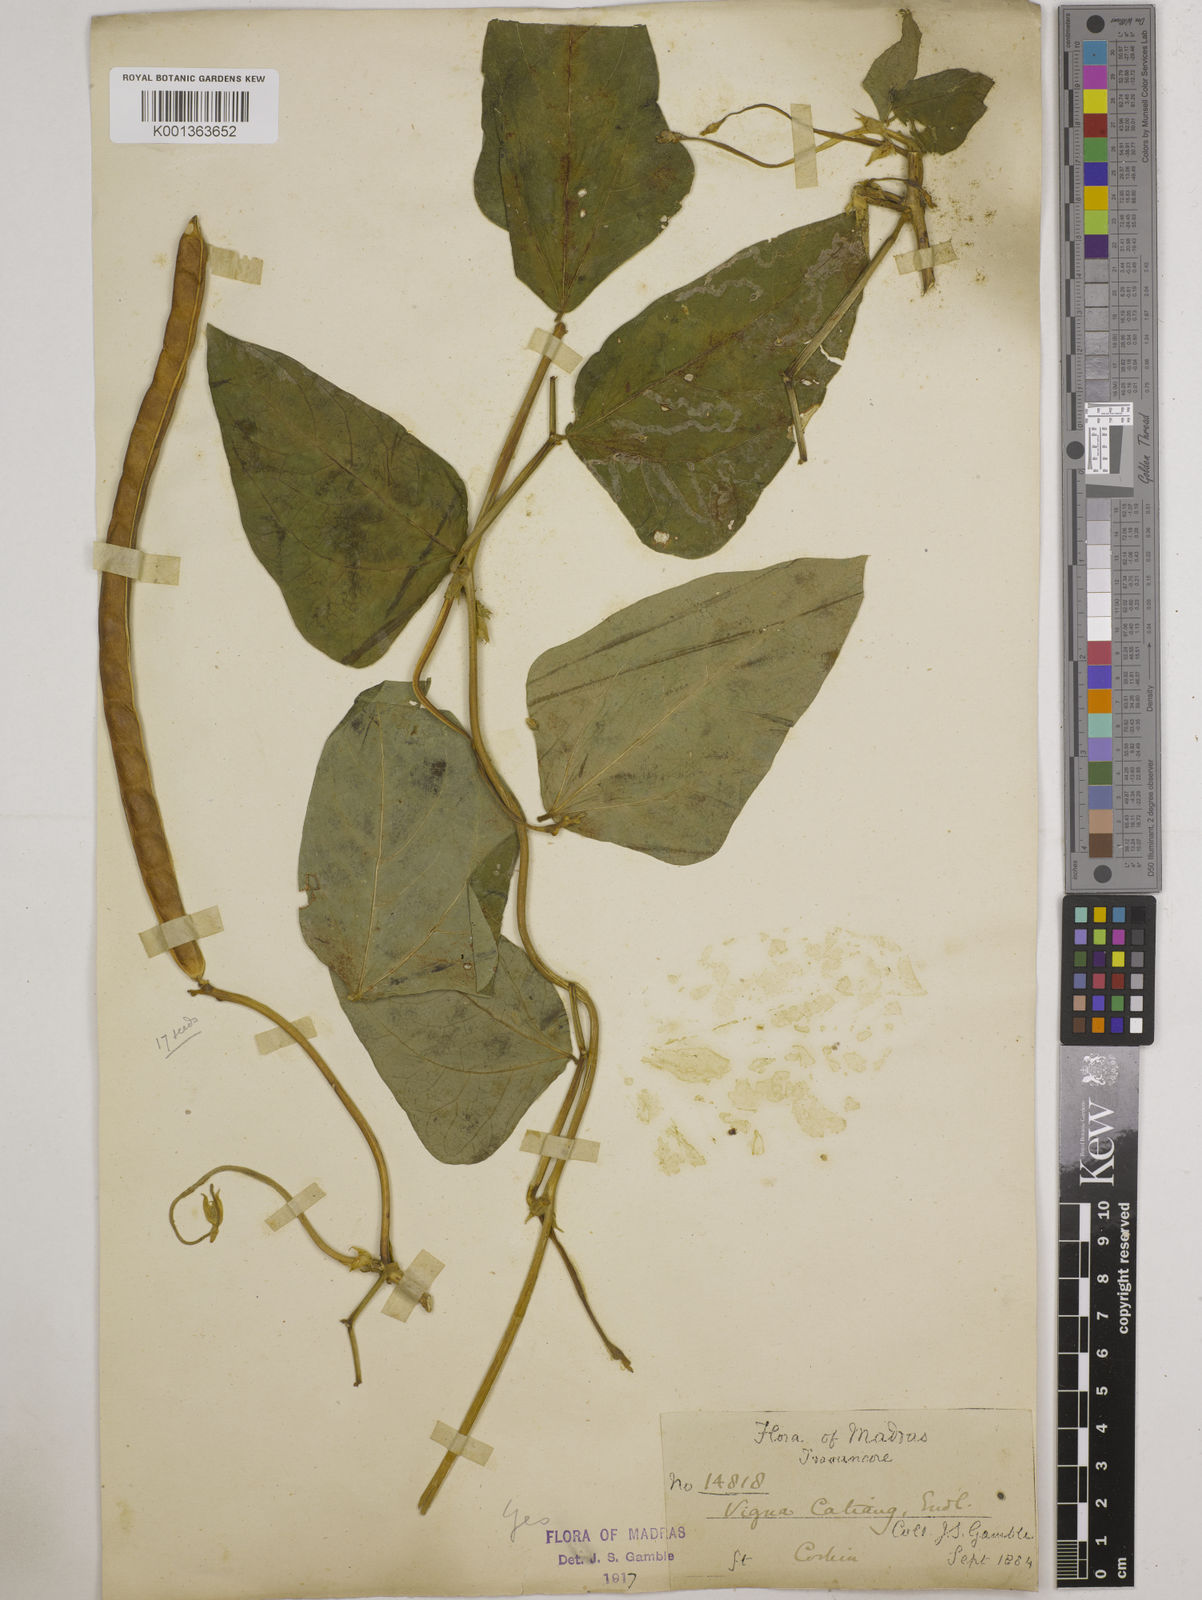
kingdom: Plantae
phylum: Tracheophyta
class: Magnoliopsida
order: Fabales
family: Fabaceae
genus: Vigna
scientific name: Vigna unguiculata
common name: Cowpea
